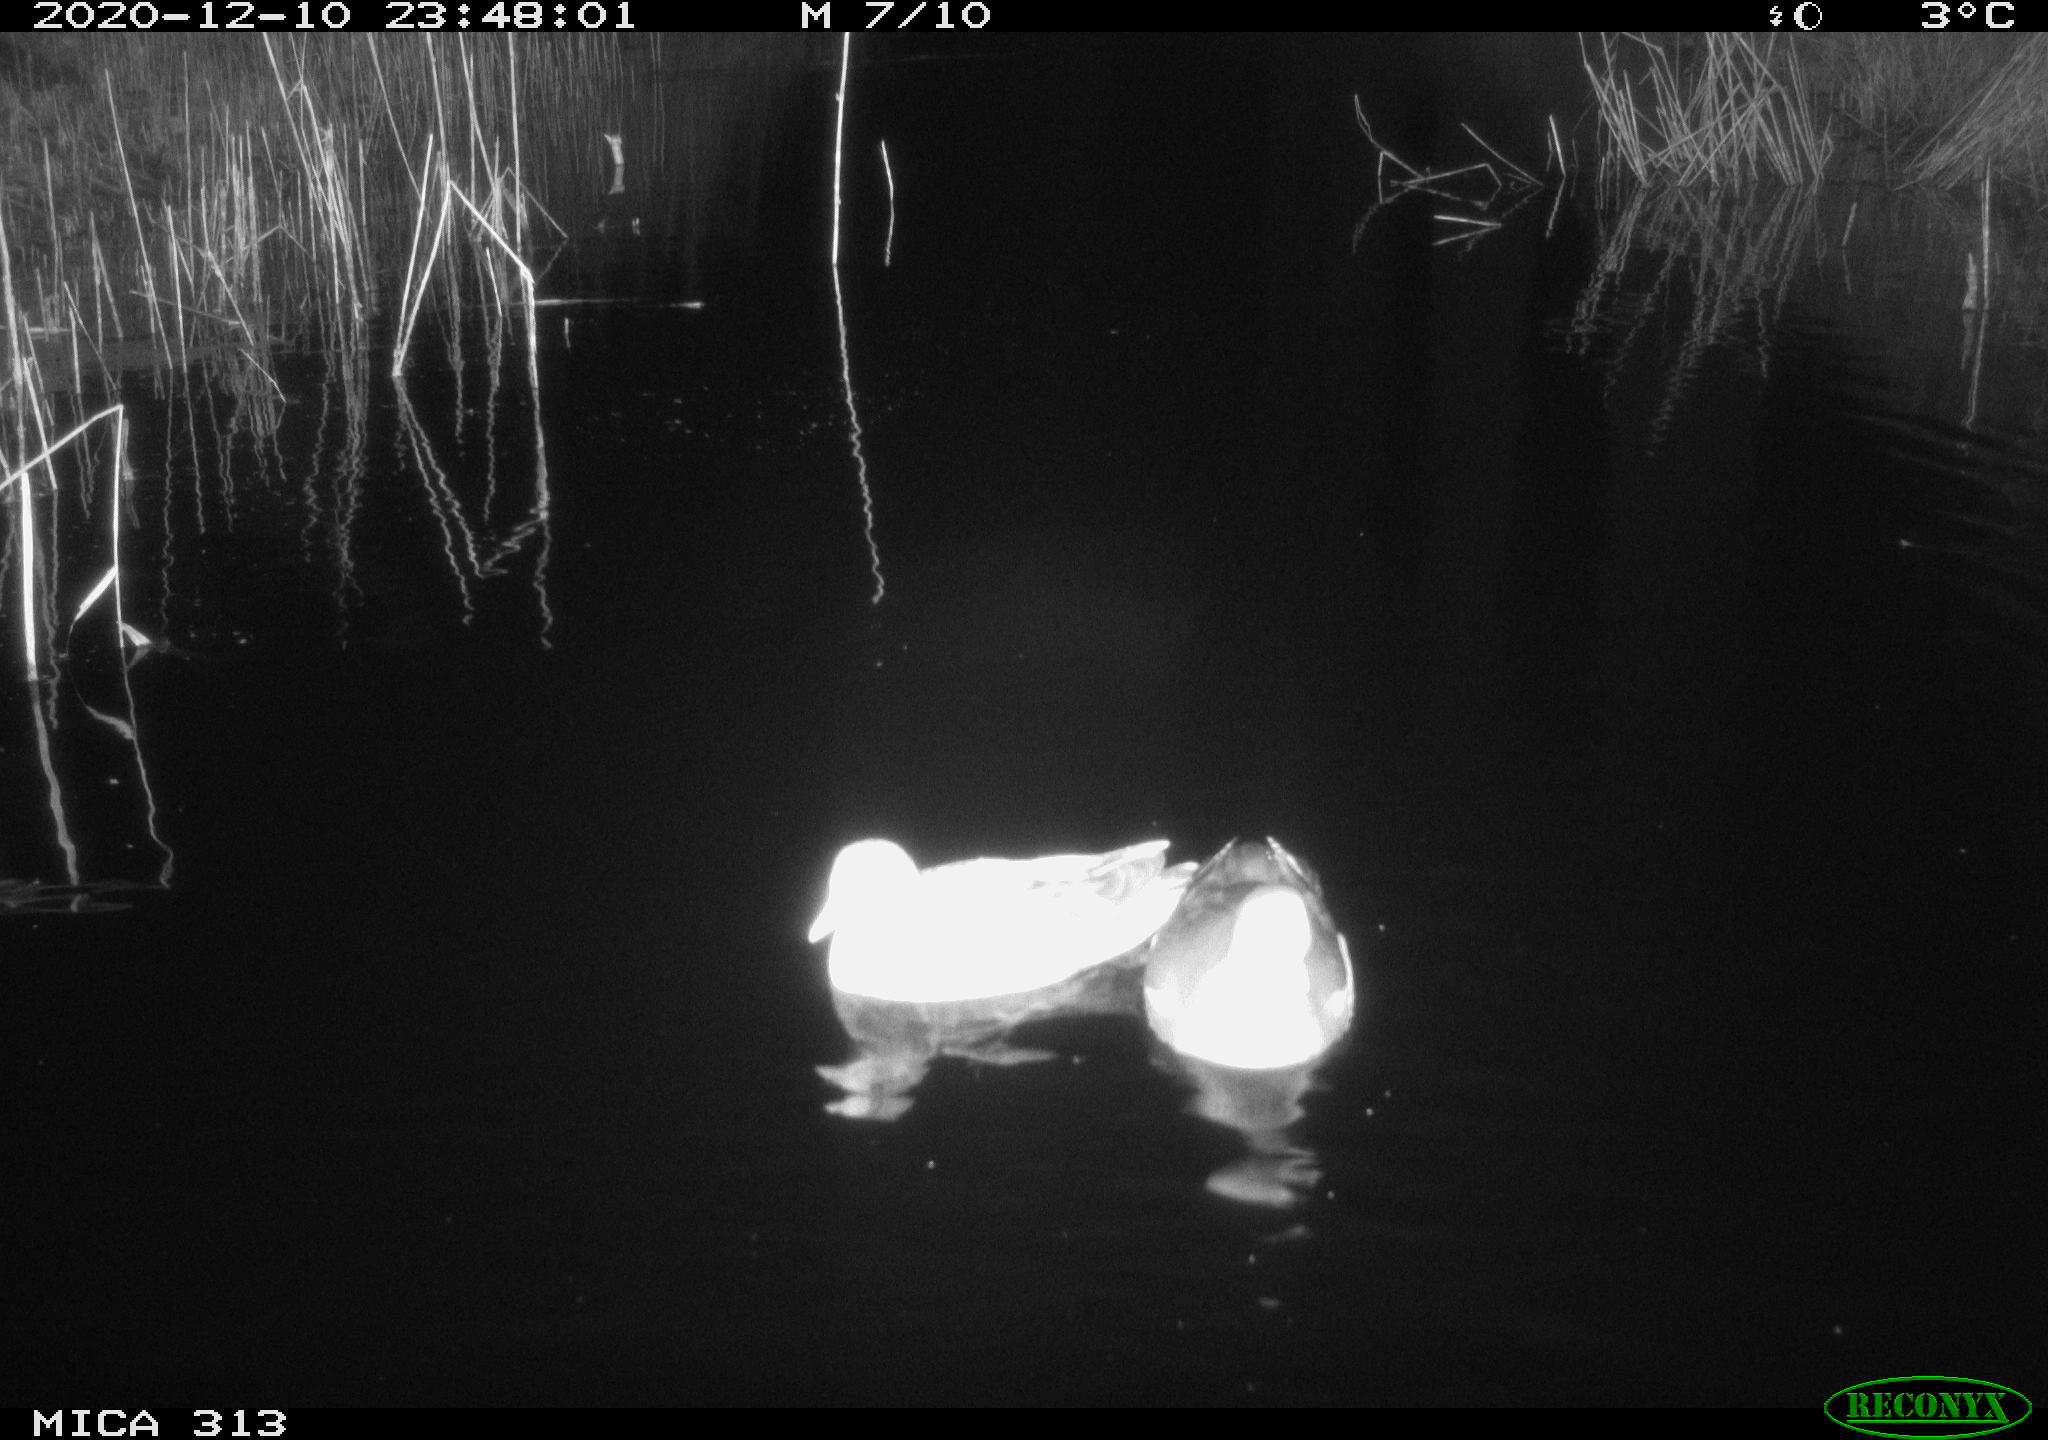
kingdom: Animalia
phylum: Chordata
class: Aves
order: Anseriformes
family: Anatidae
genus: Anas
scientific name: Anas platyrhynchos
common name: Mallard
